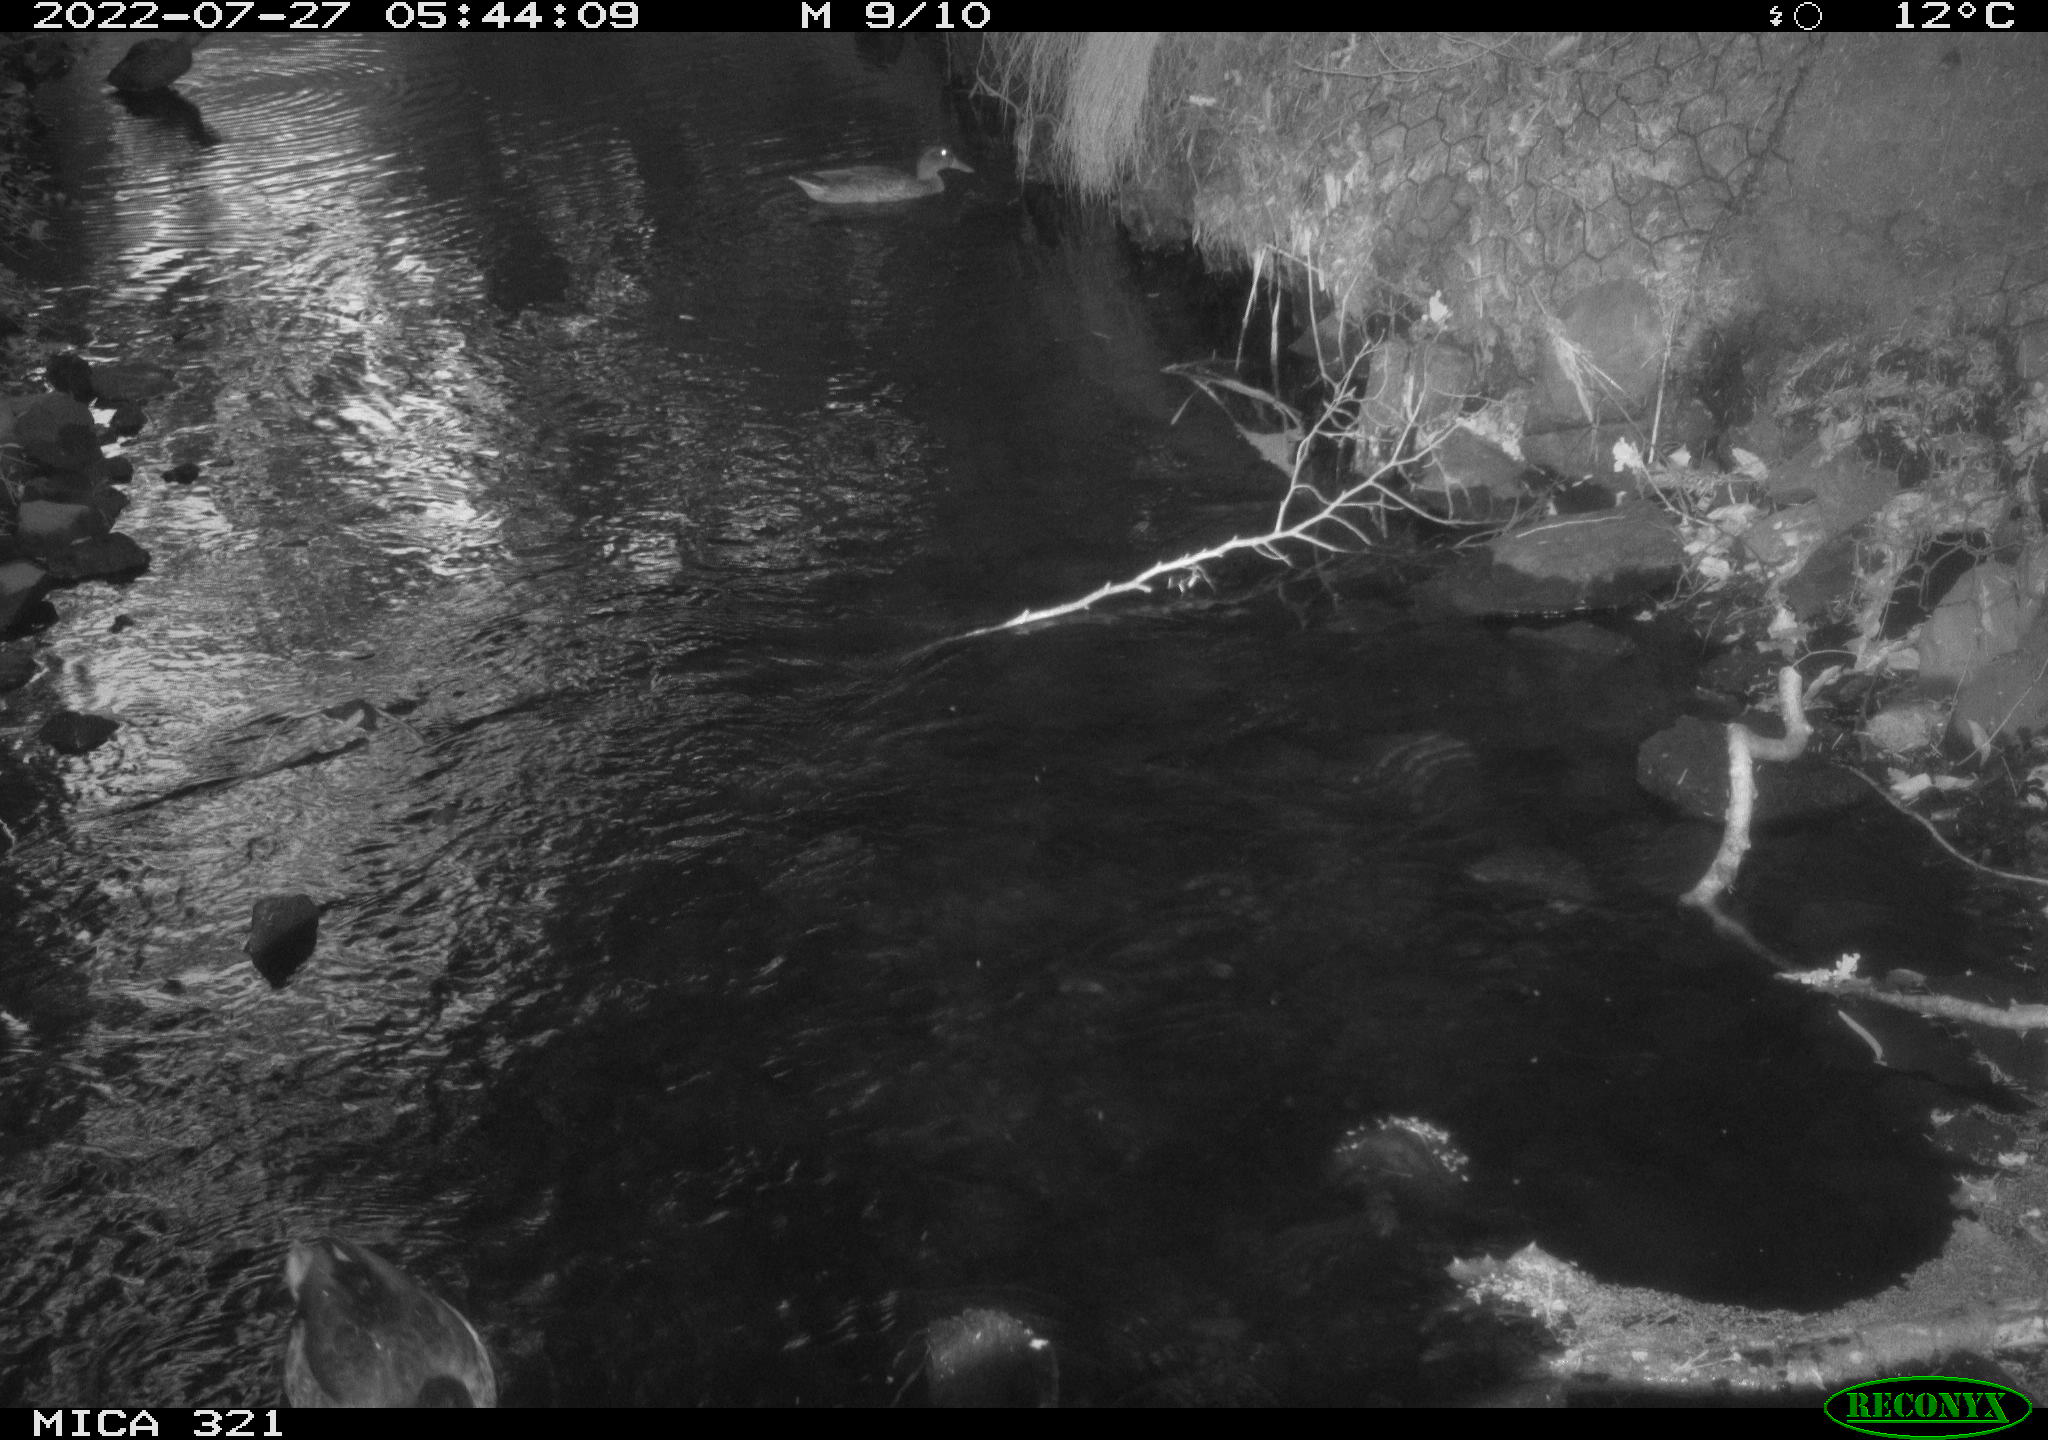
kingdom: Animalia
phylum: Chordata
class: Aves
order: Anseriformes
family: Anatidae
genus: Anas
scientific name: Anas platyrhynchos
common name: Mallard
